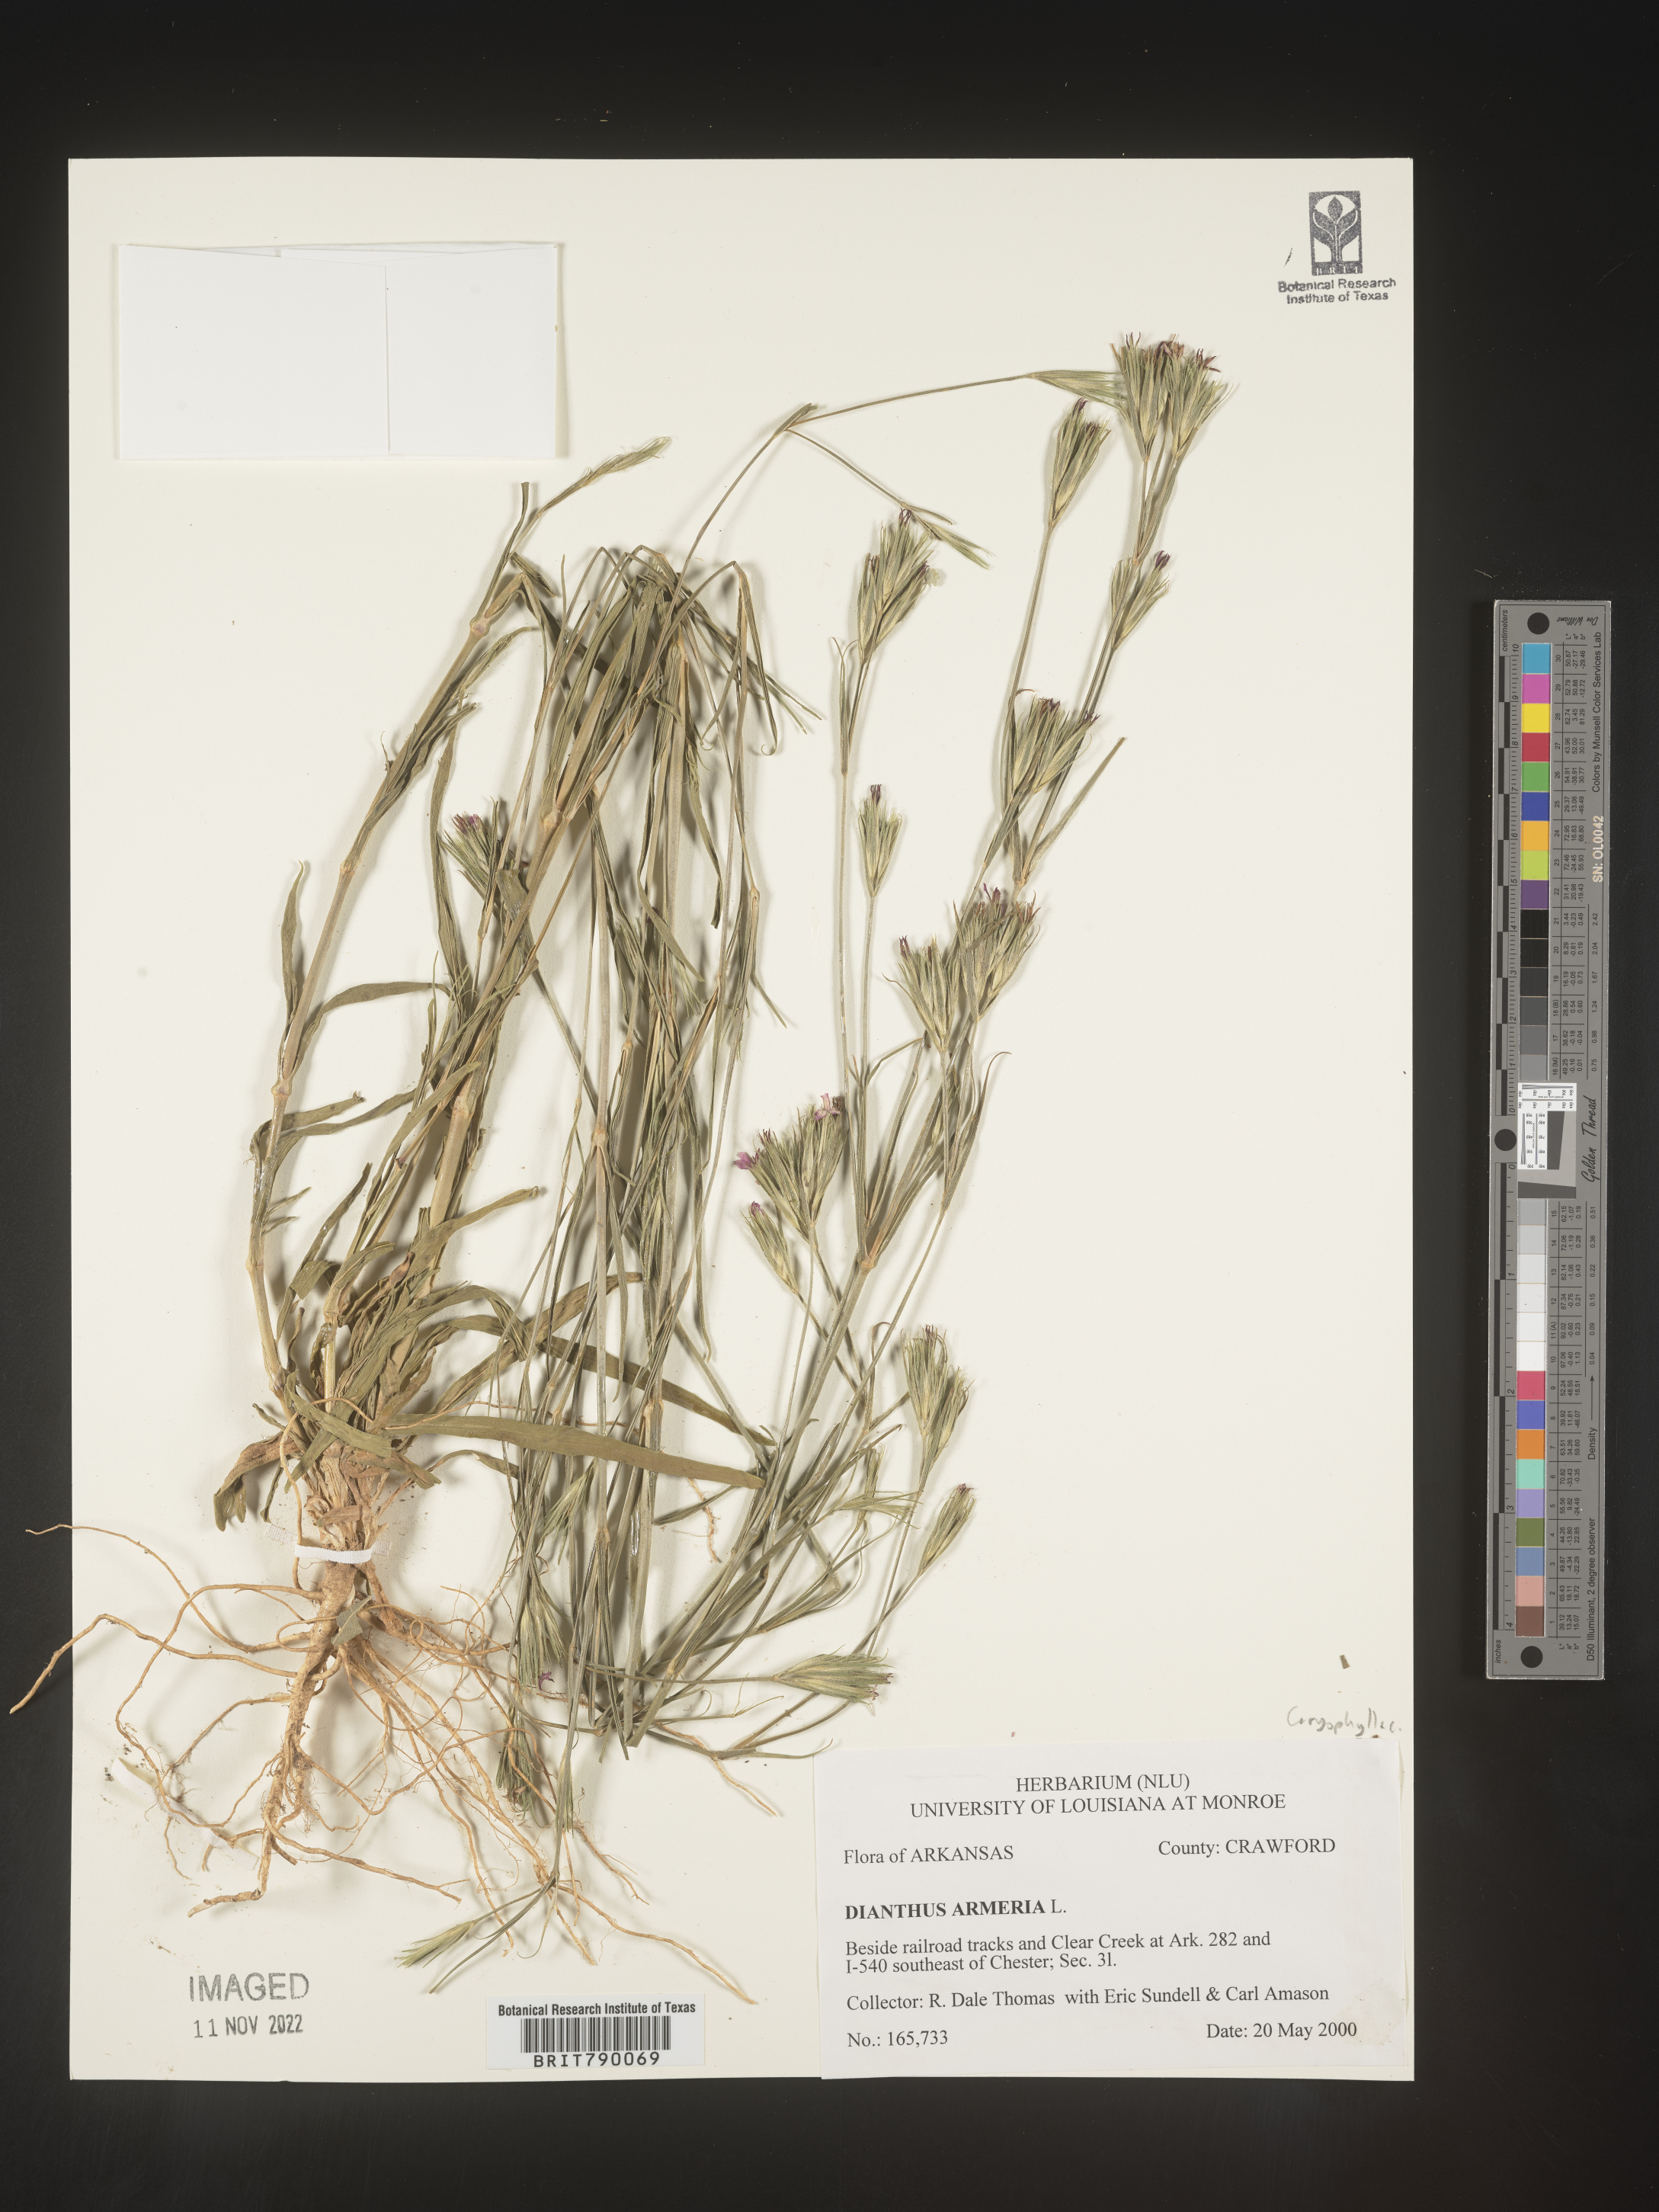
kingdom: Plantae
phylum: Tracheophyta
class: Magnoliopsida
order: Caryophyllales
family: Caryophyllaceae
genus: Dianthus
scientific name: Dianthus armeria
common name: Deptford pink
